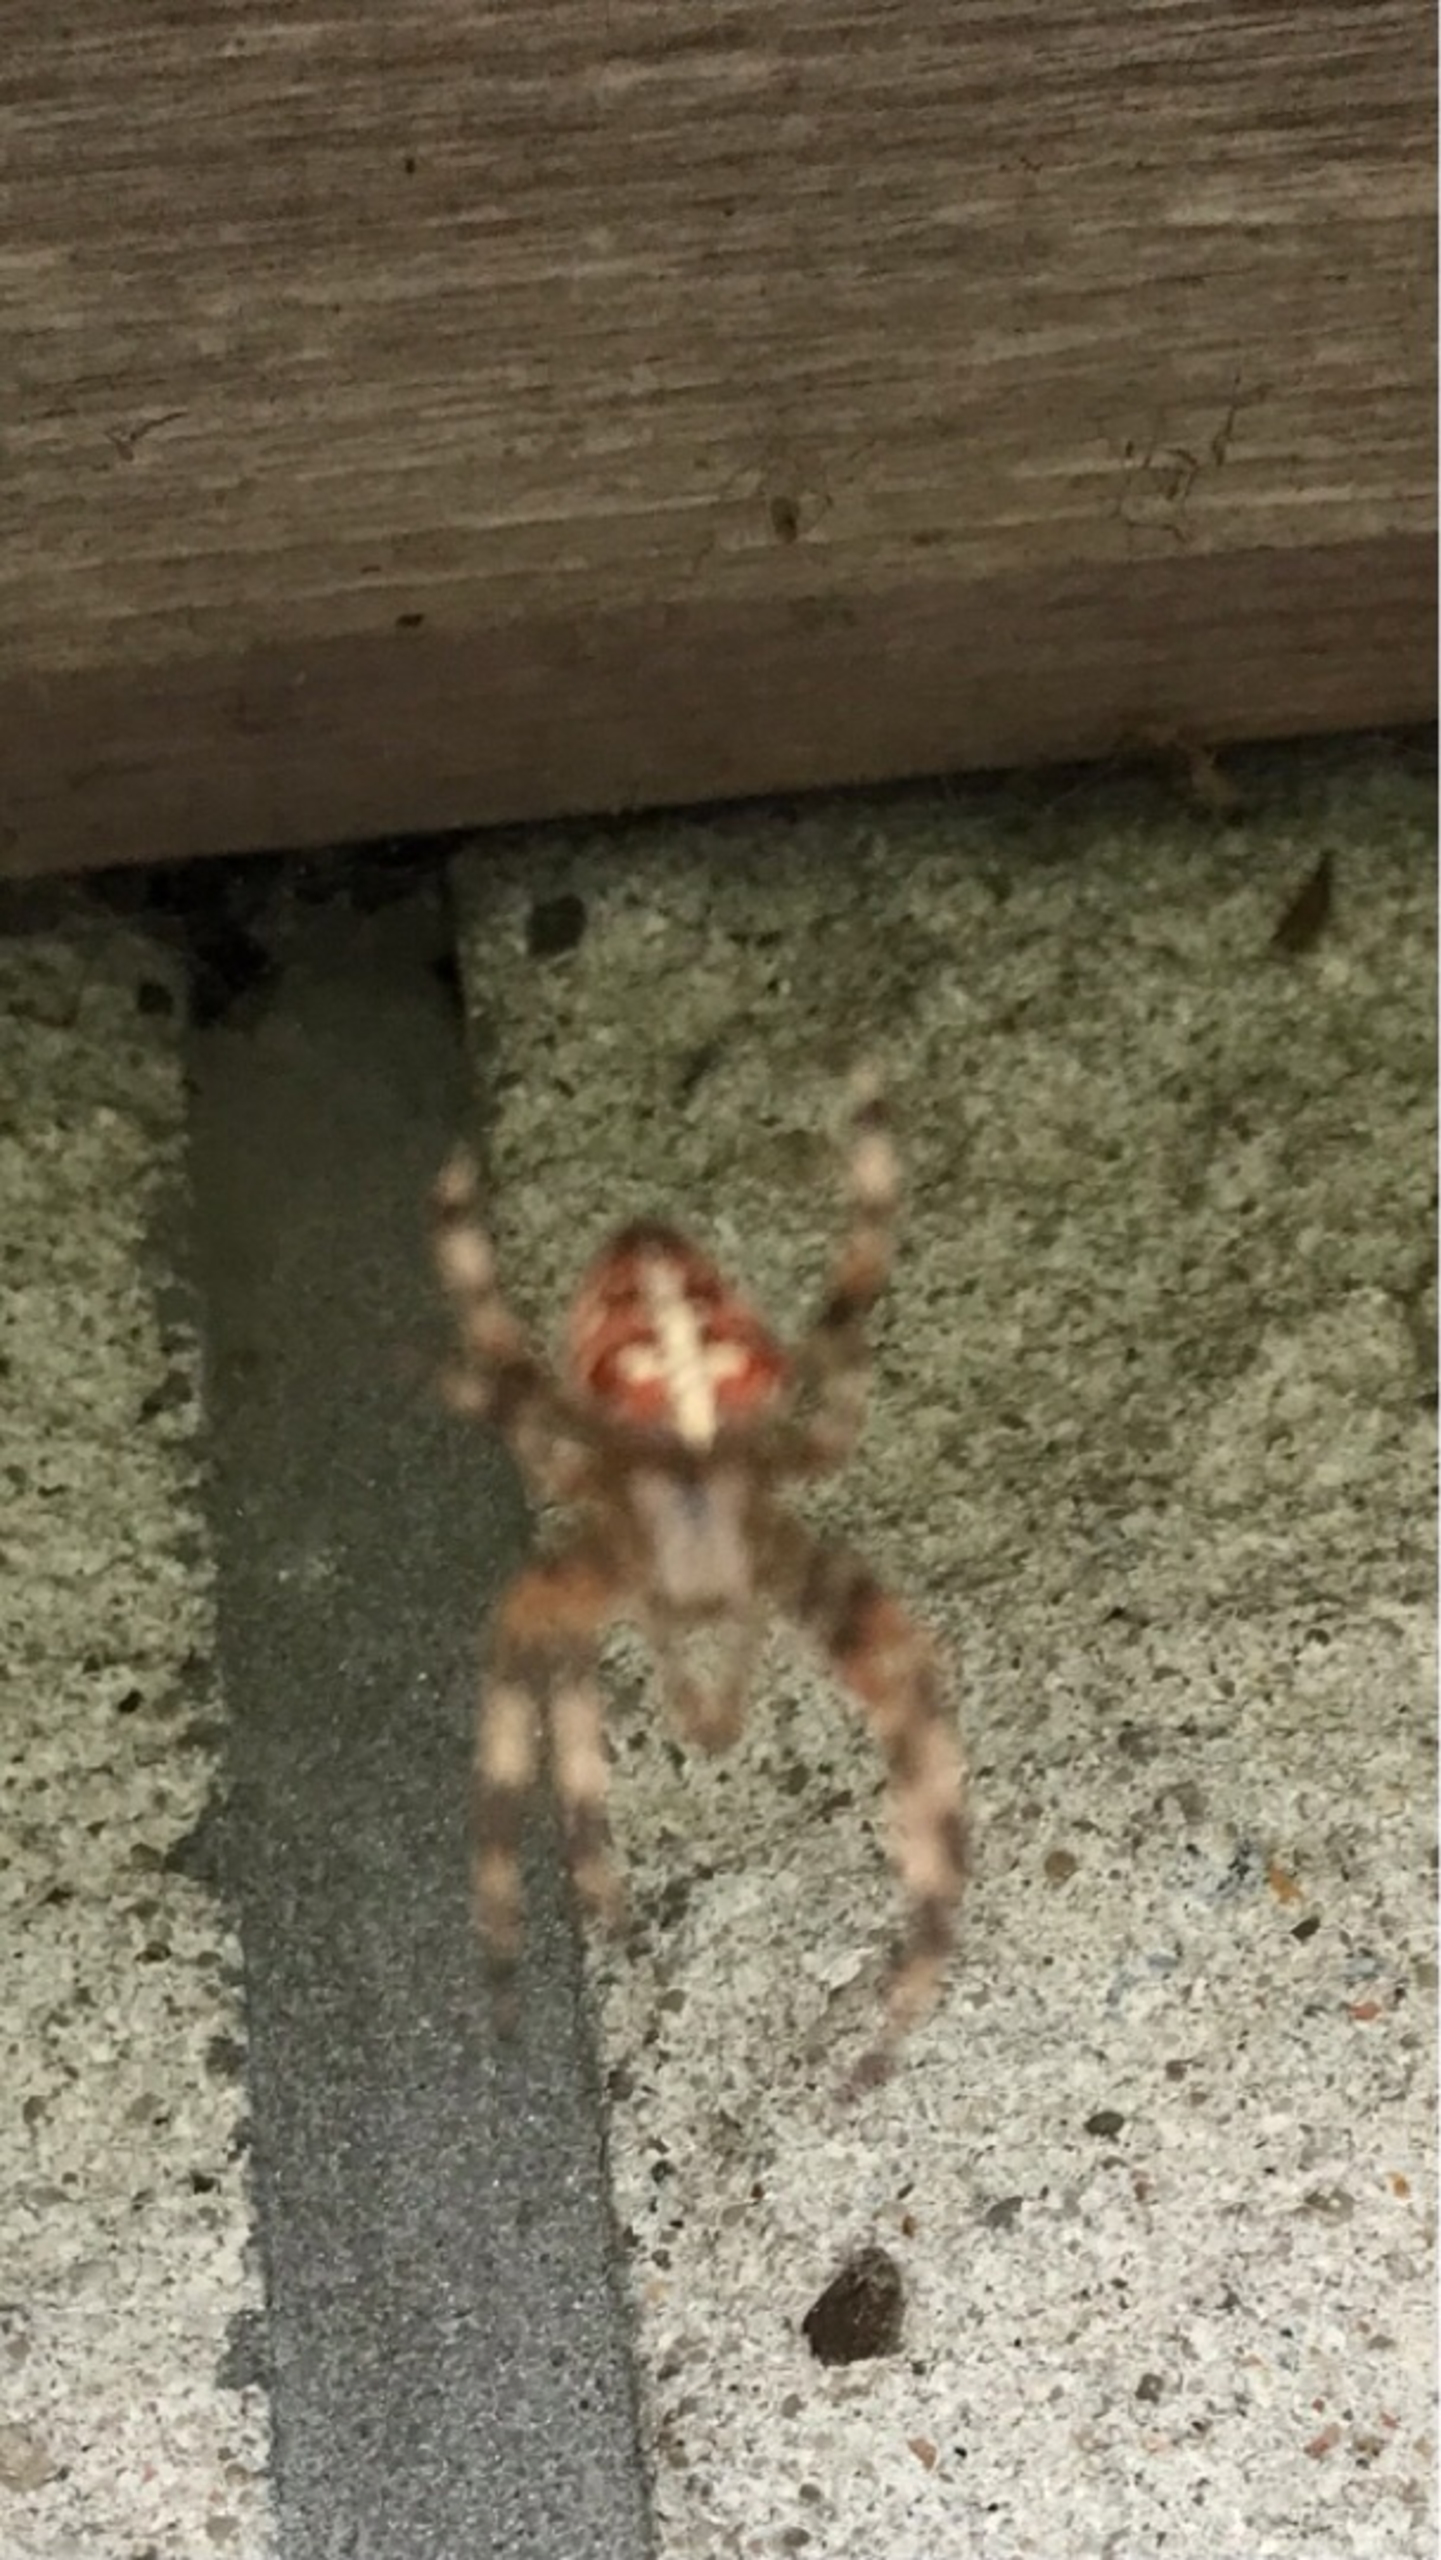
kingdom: Animalia
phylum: Arthropoda
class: Arachnida
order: Araneae
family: Araneidae
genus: Araneus
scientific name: Araneus diadematus
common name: Korsedderkop
